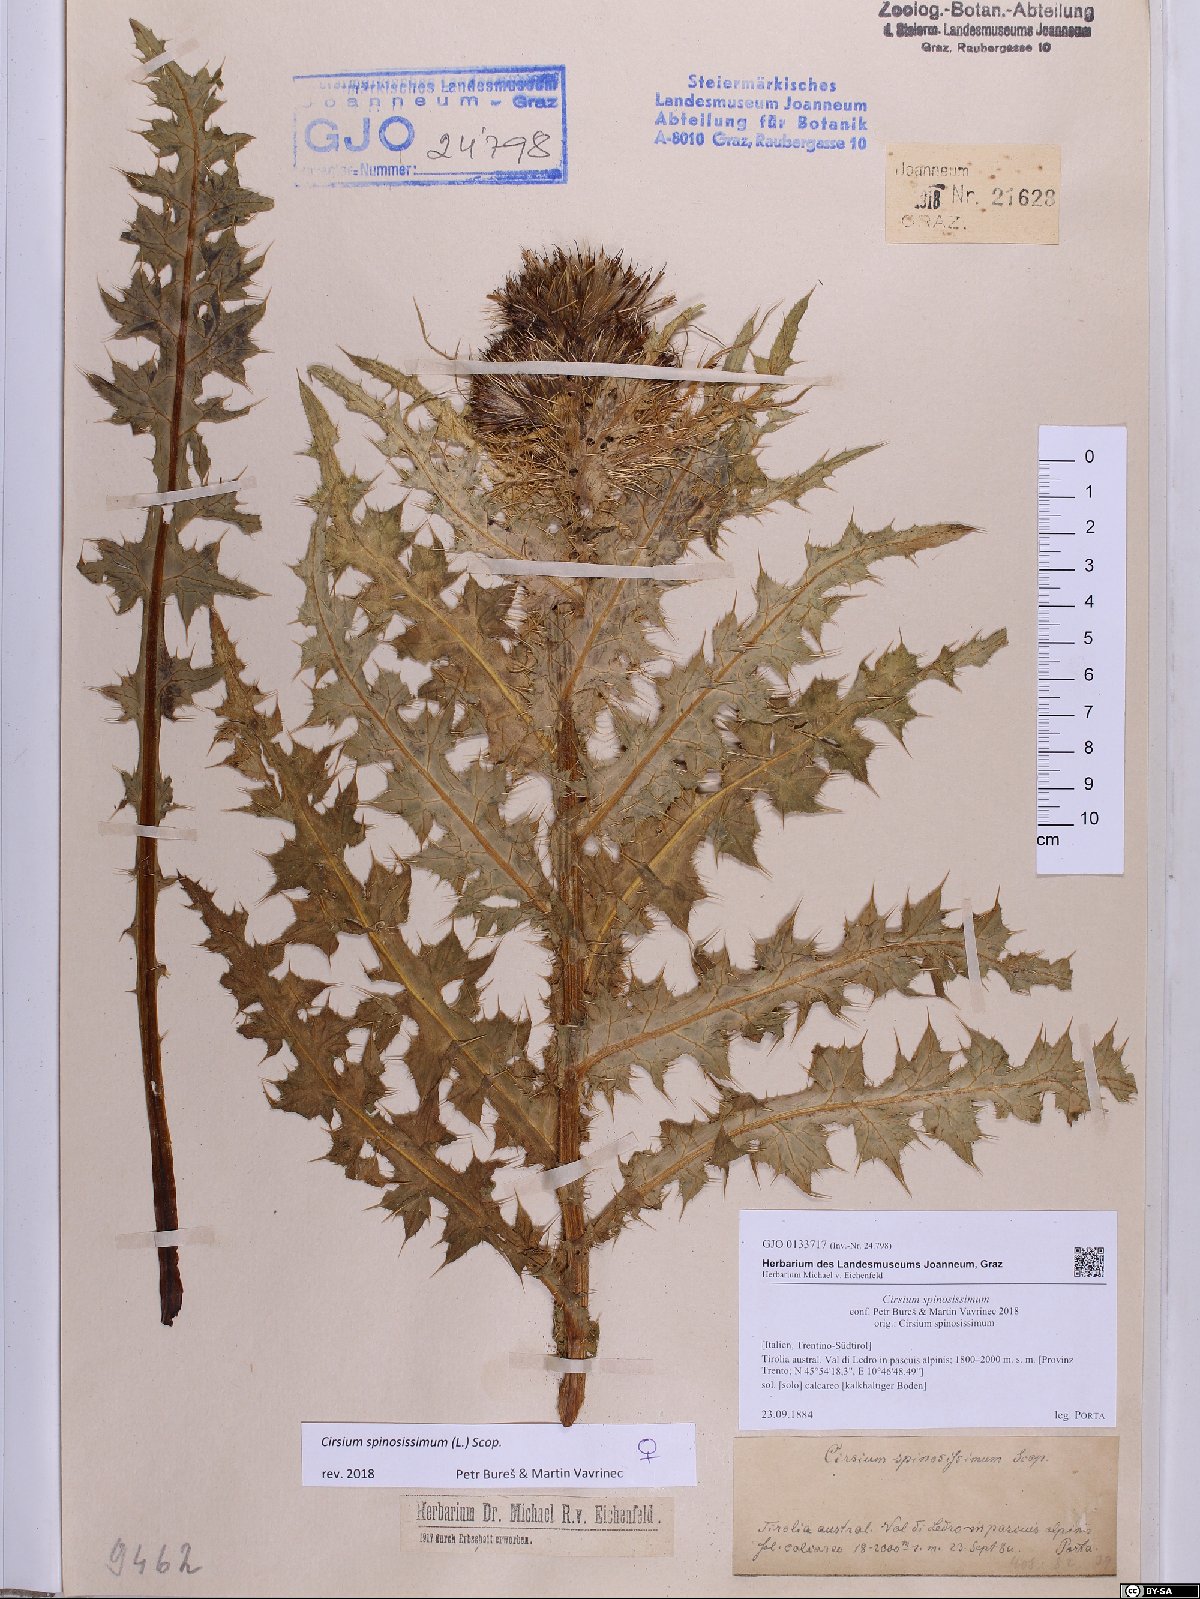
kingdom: Plantae
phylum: Tracheophyta
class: Magnoliopsida
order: Asterales
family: Asteraceae
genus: Cirsium
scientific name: Cirsium spinosissimum
